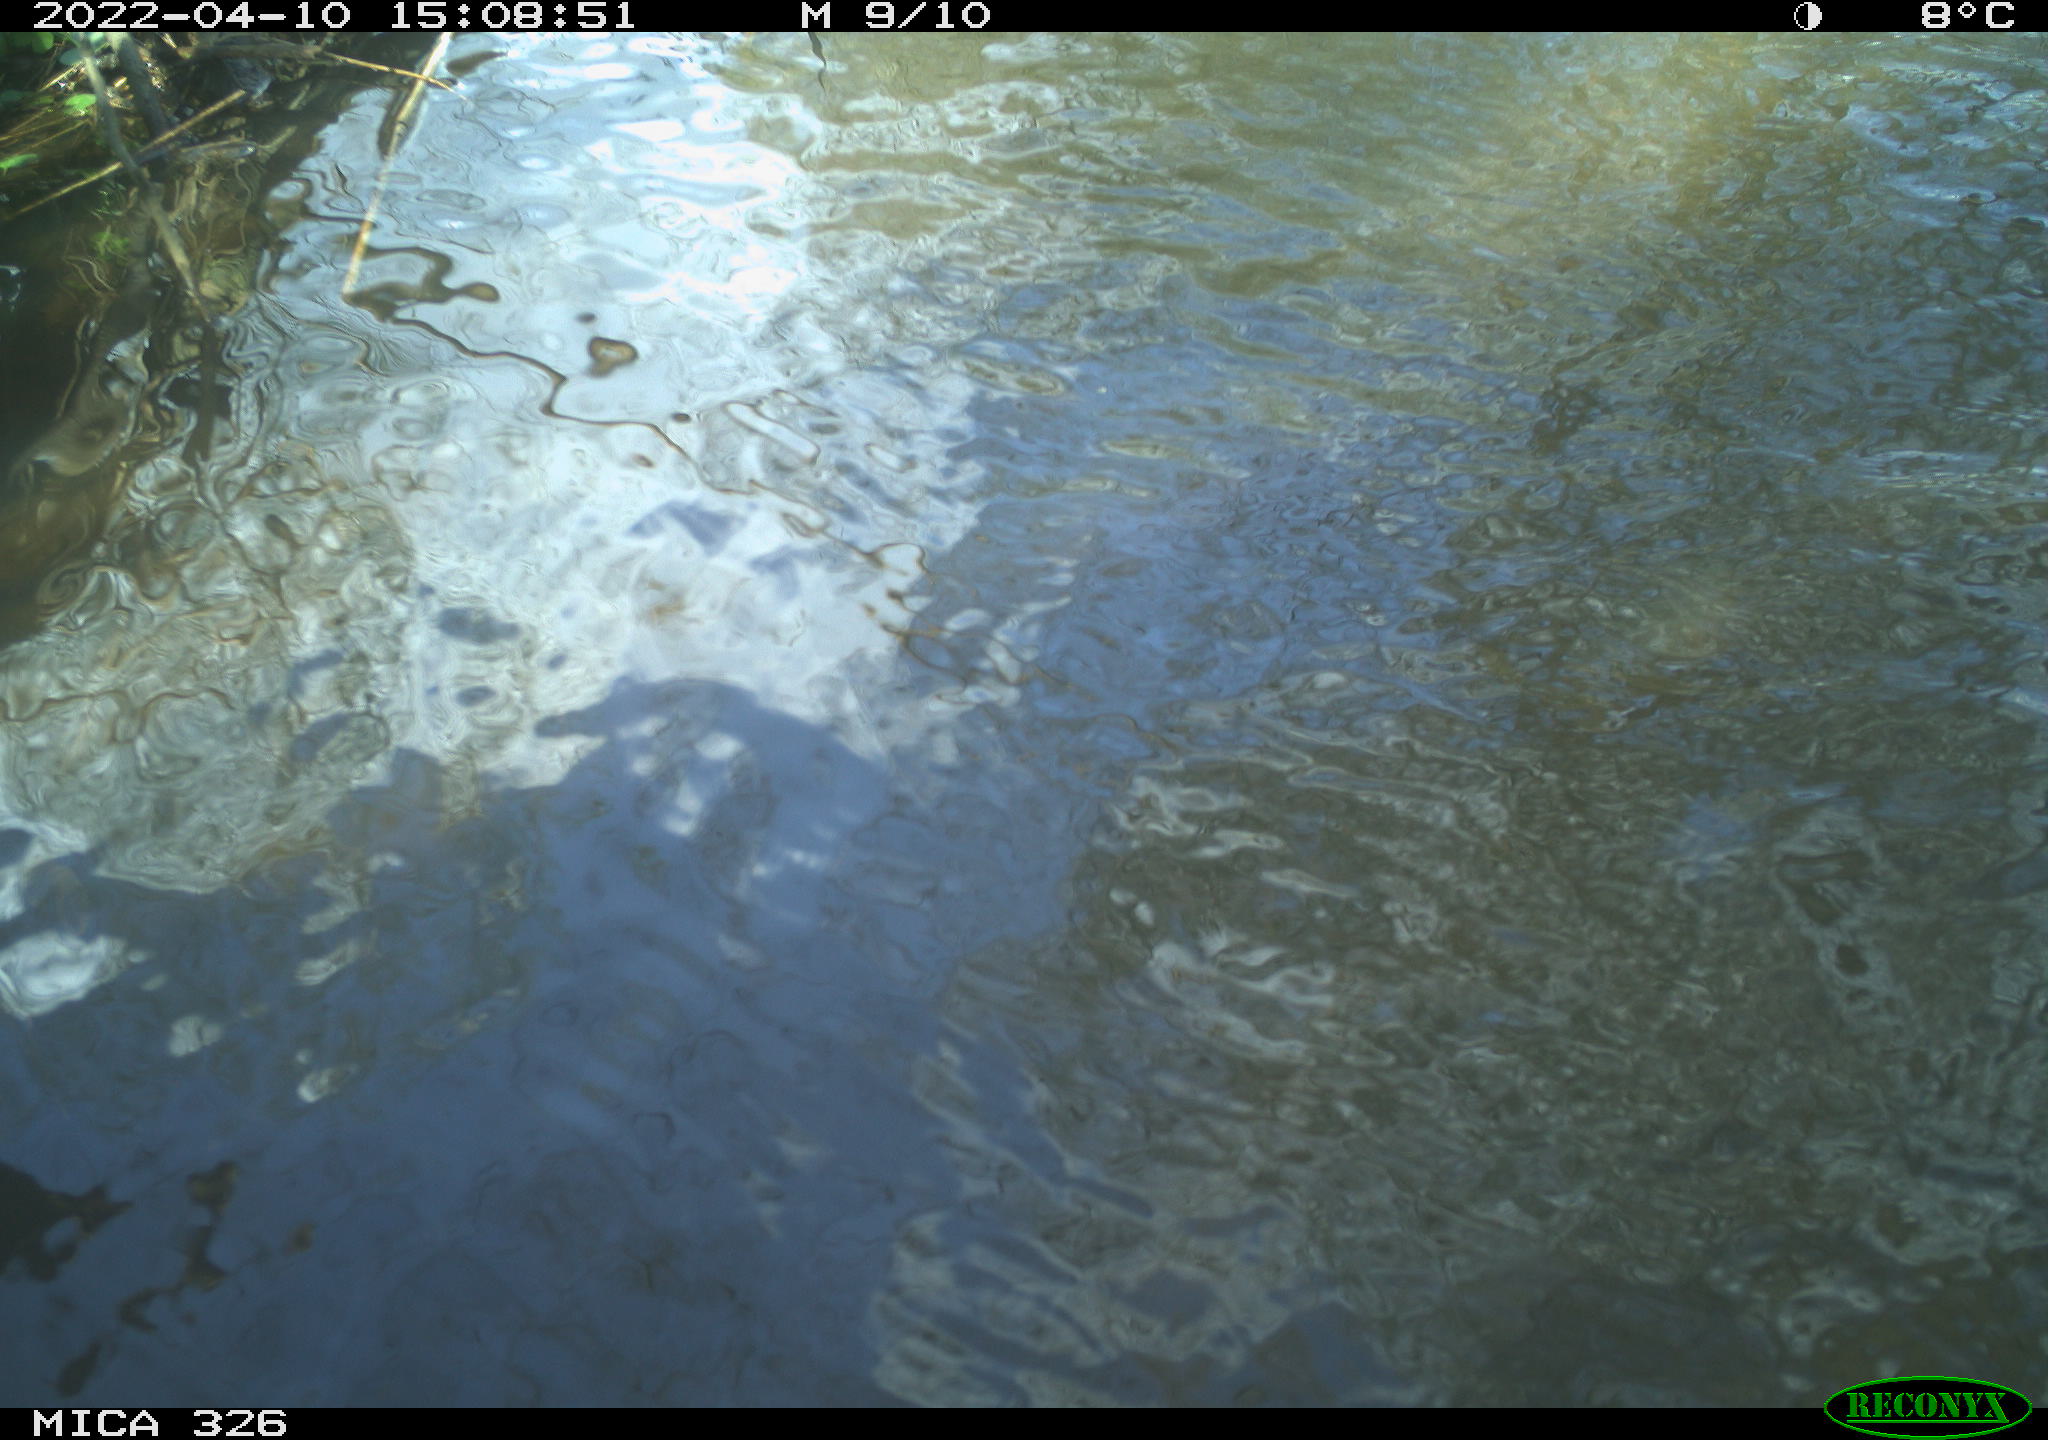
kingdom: Animalia
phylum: Chordata
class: Aves
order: Anseriformes
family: Anatidae
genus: Anas
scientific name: Anas
